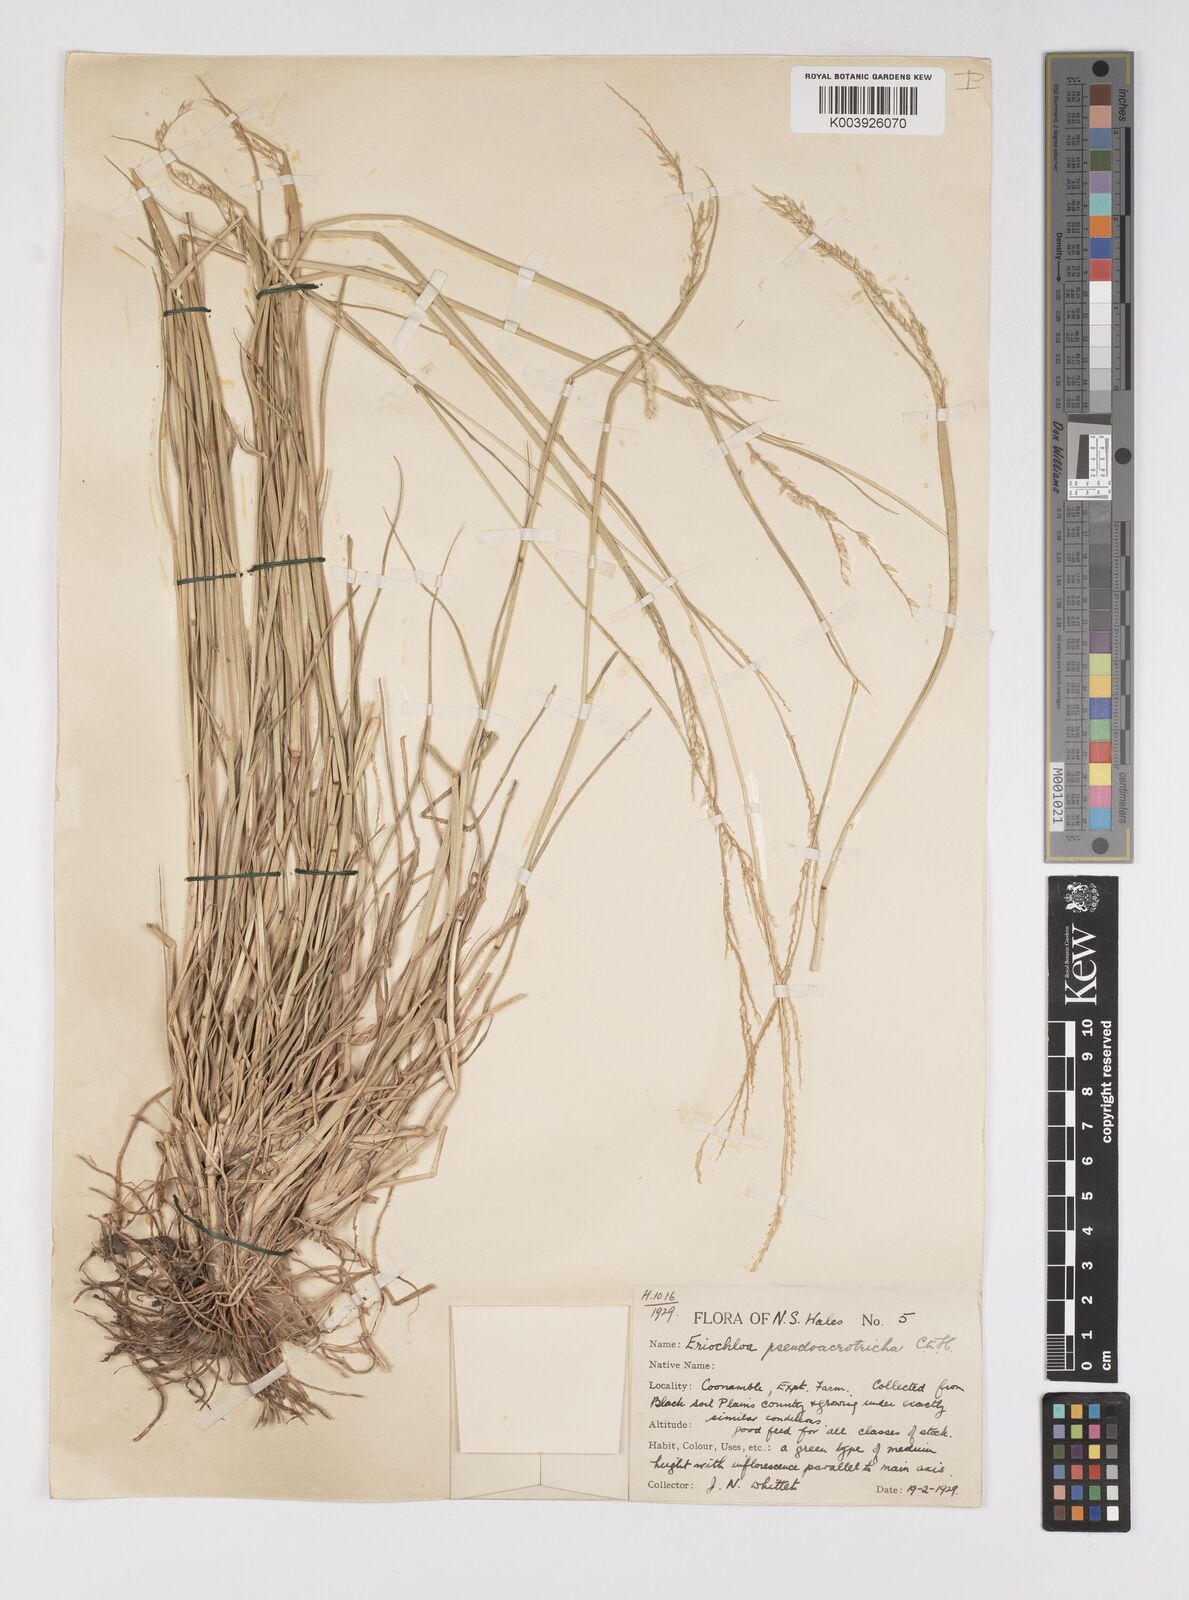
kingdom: Plantae
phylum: Tracheophyta
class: Liliopsida
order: Poales
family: Poaceae
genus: Eriochloa
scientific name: Eriochloa pseudoacrotricha
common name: Perennial cup-grass
